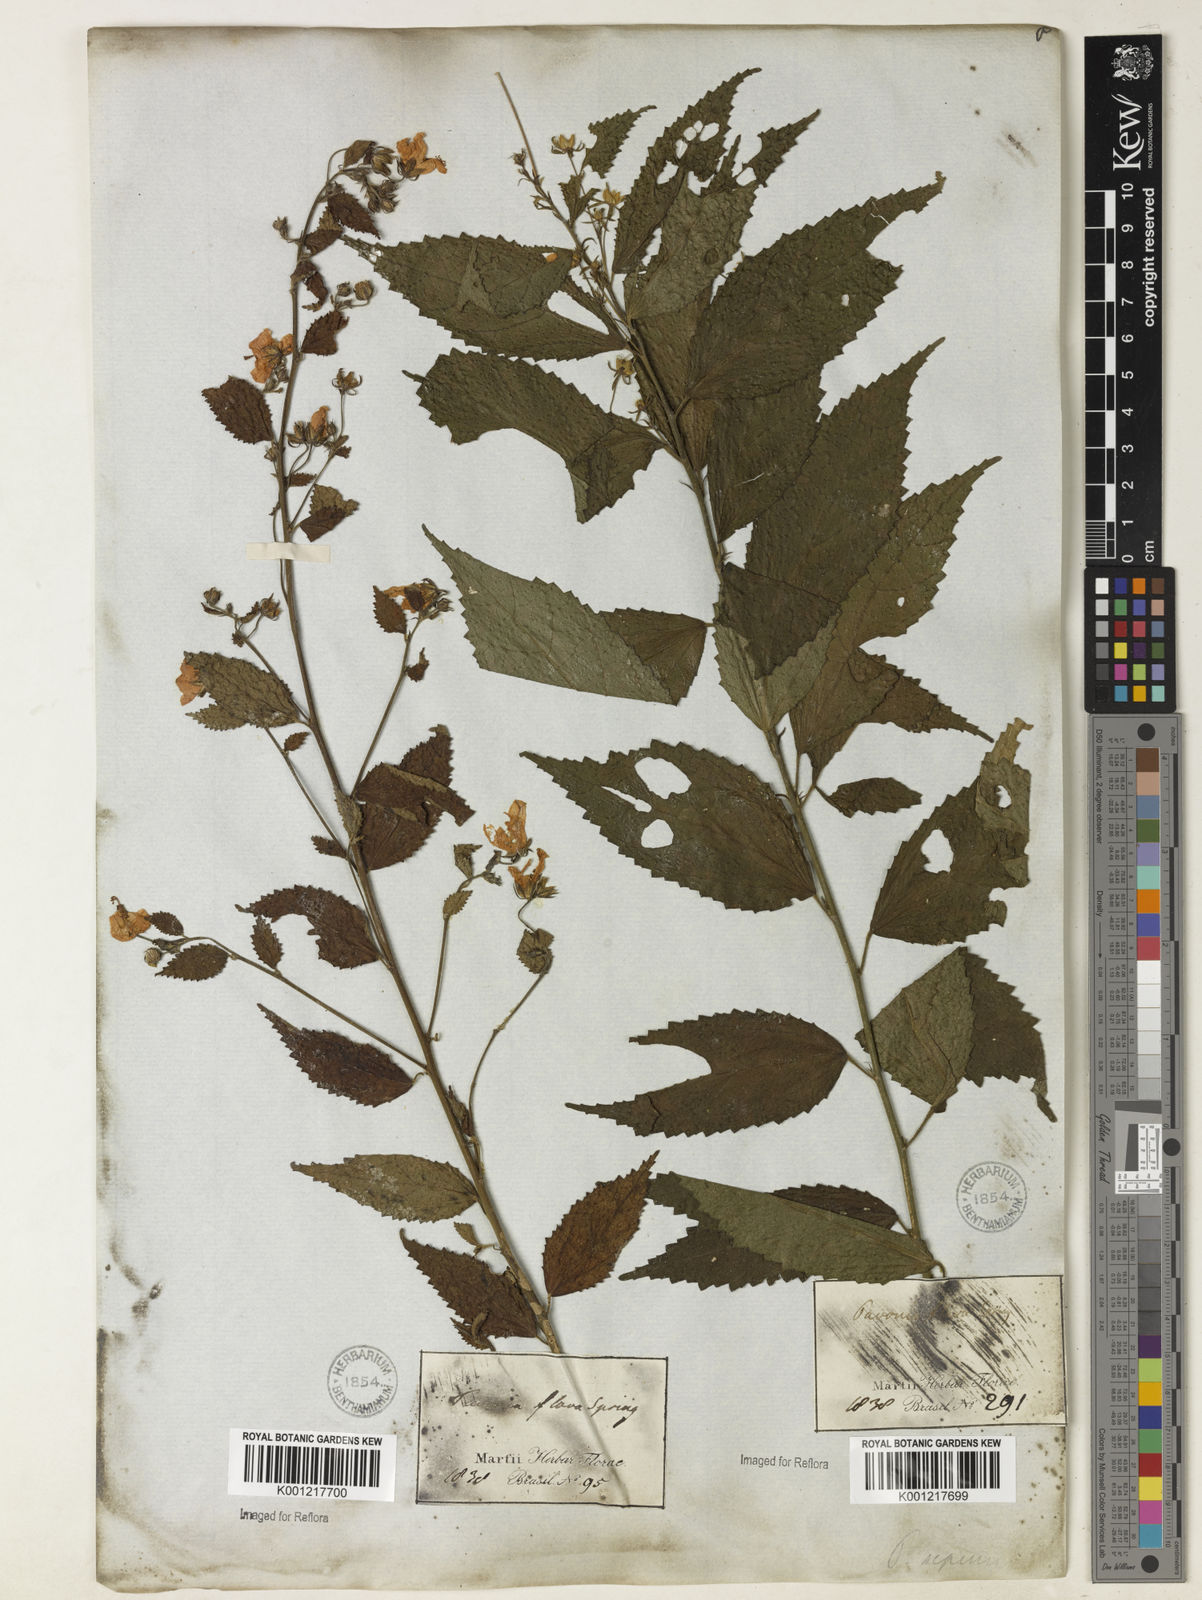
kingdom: Plantae
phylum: Tracheophyta
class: Magnoliopsida
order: Malvales
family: Malvaceae
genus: Pavonia
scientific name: Pavonia sepium
